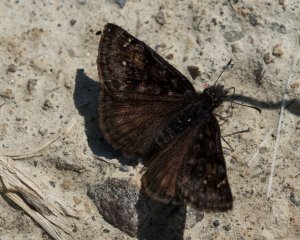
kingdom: Animalia
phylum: Arthropoda
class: Insecta
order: Lepidoptera
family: Hesperiidae
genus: Gesta
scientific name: Gesta
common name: Persius Duskywing
